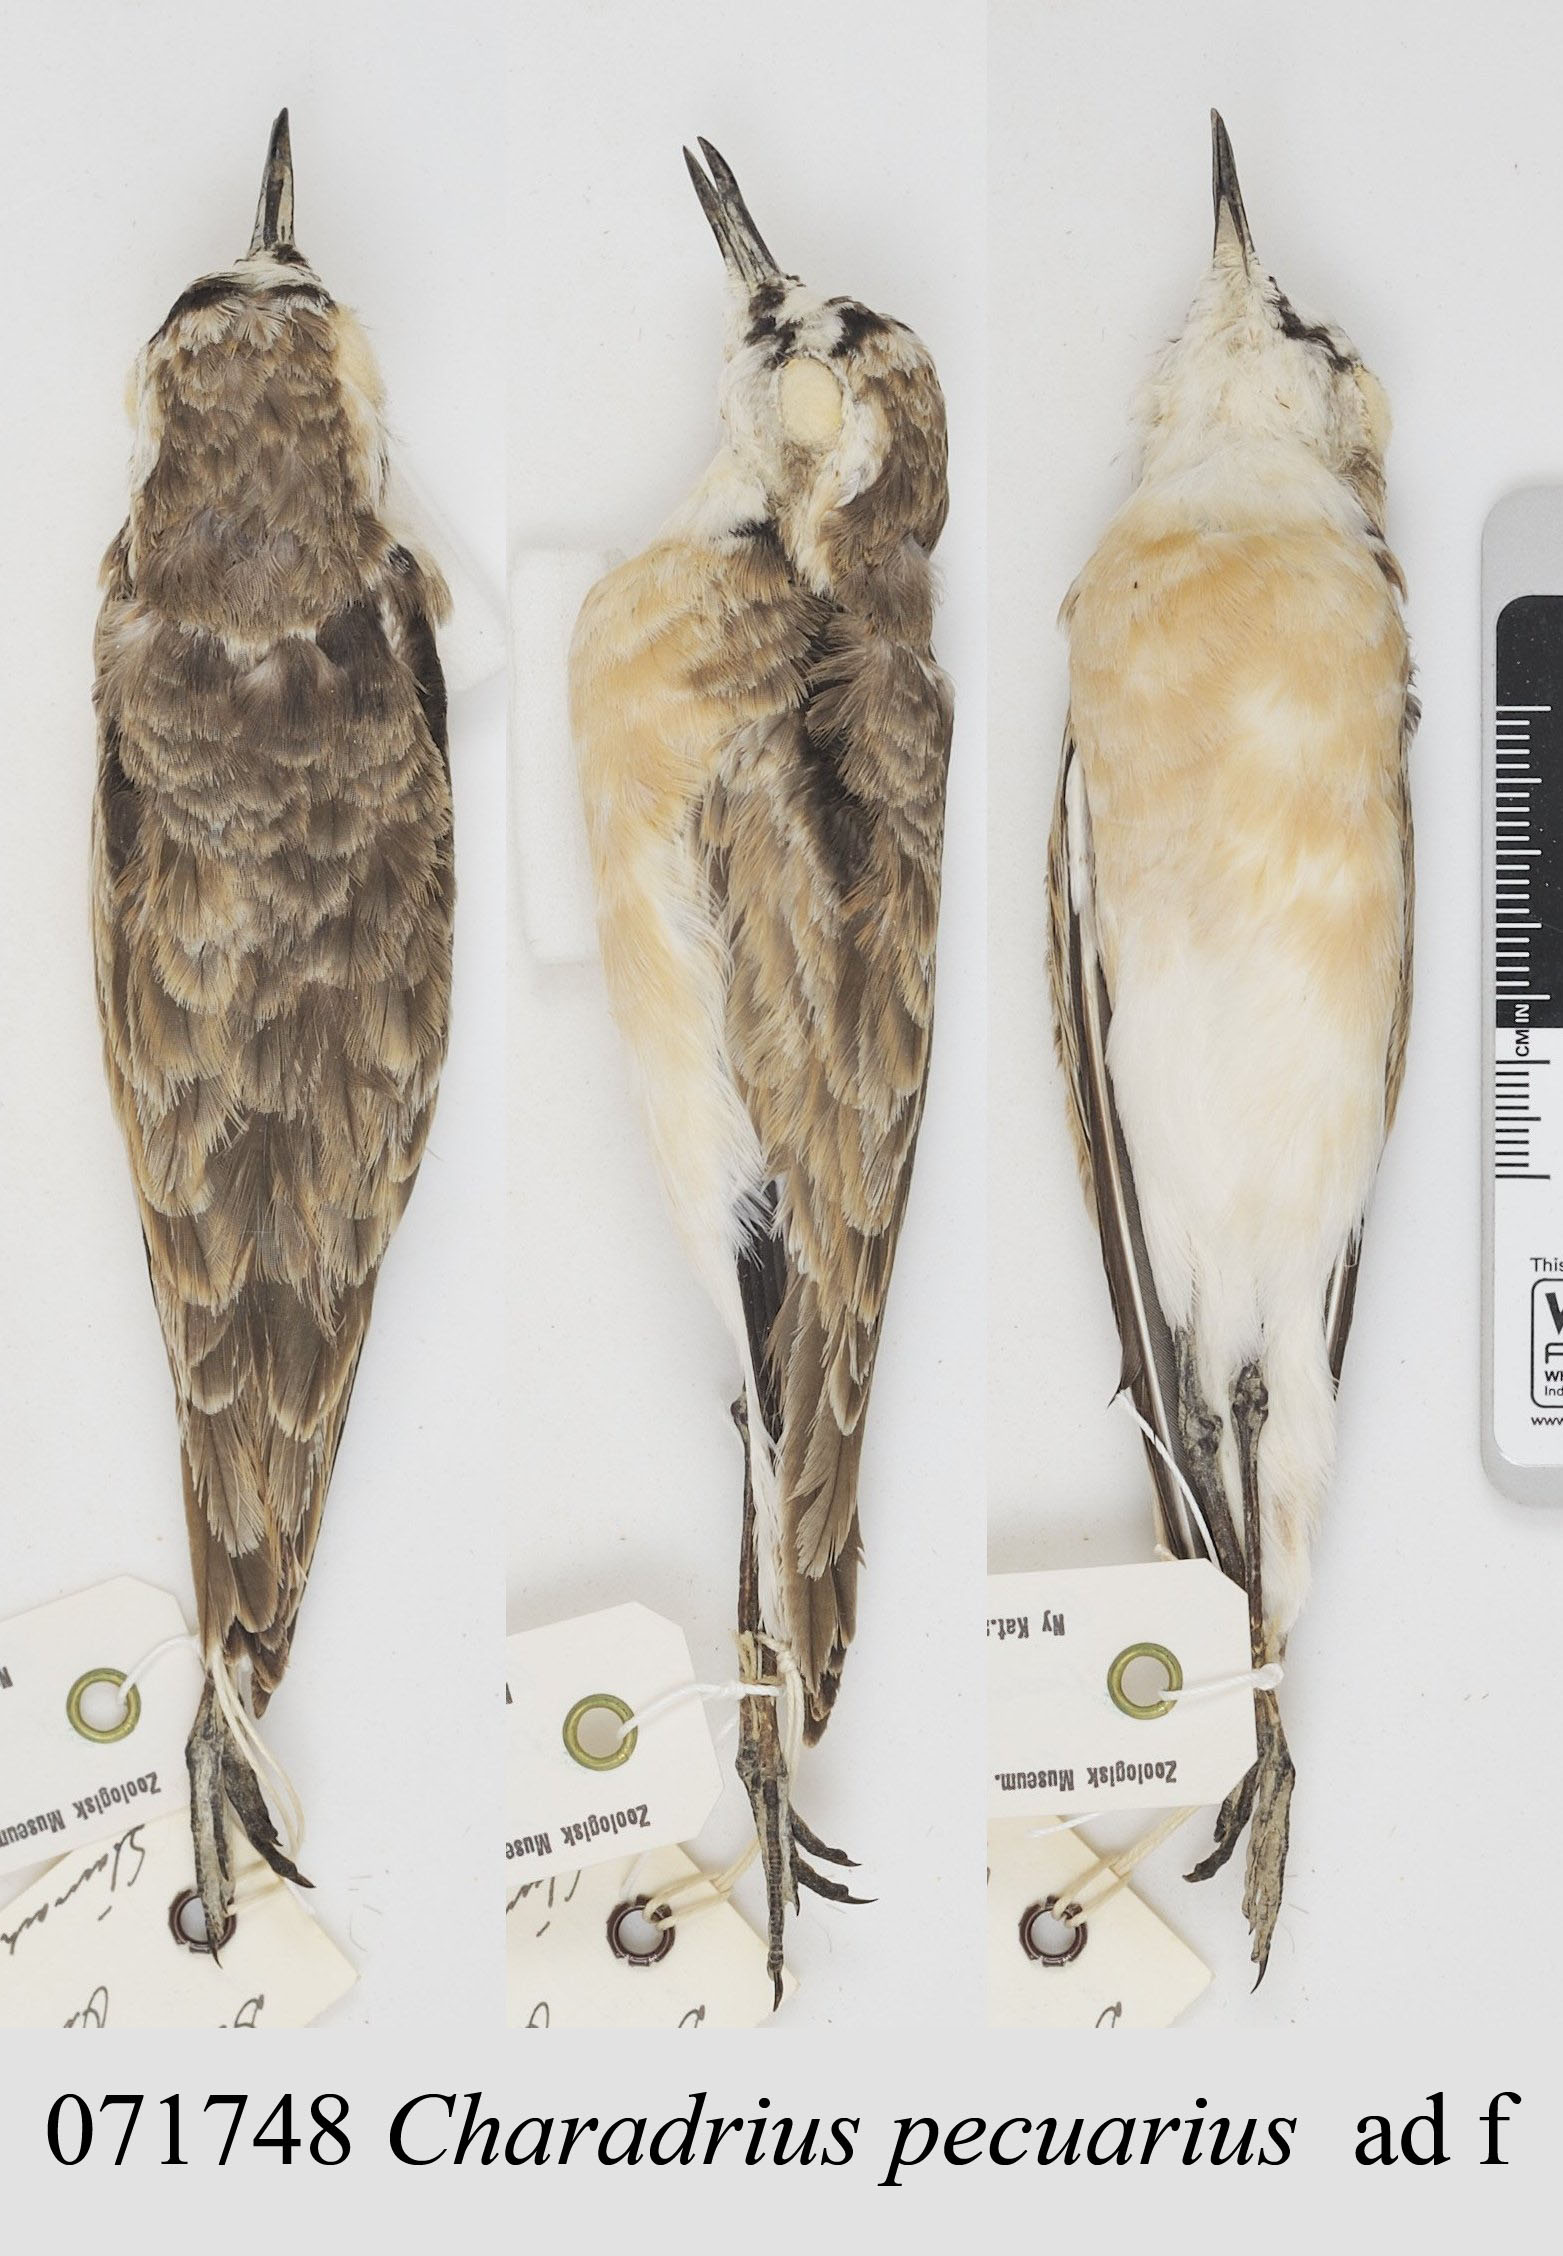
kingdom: Animalia
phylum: Chordata
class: Aves
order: Charadriiformes
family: Charadriidae
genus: Charadrius
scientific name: Charadrius pecuarius
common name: Kittlitz's plover
